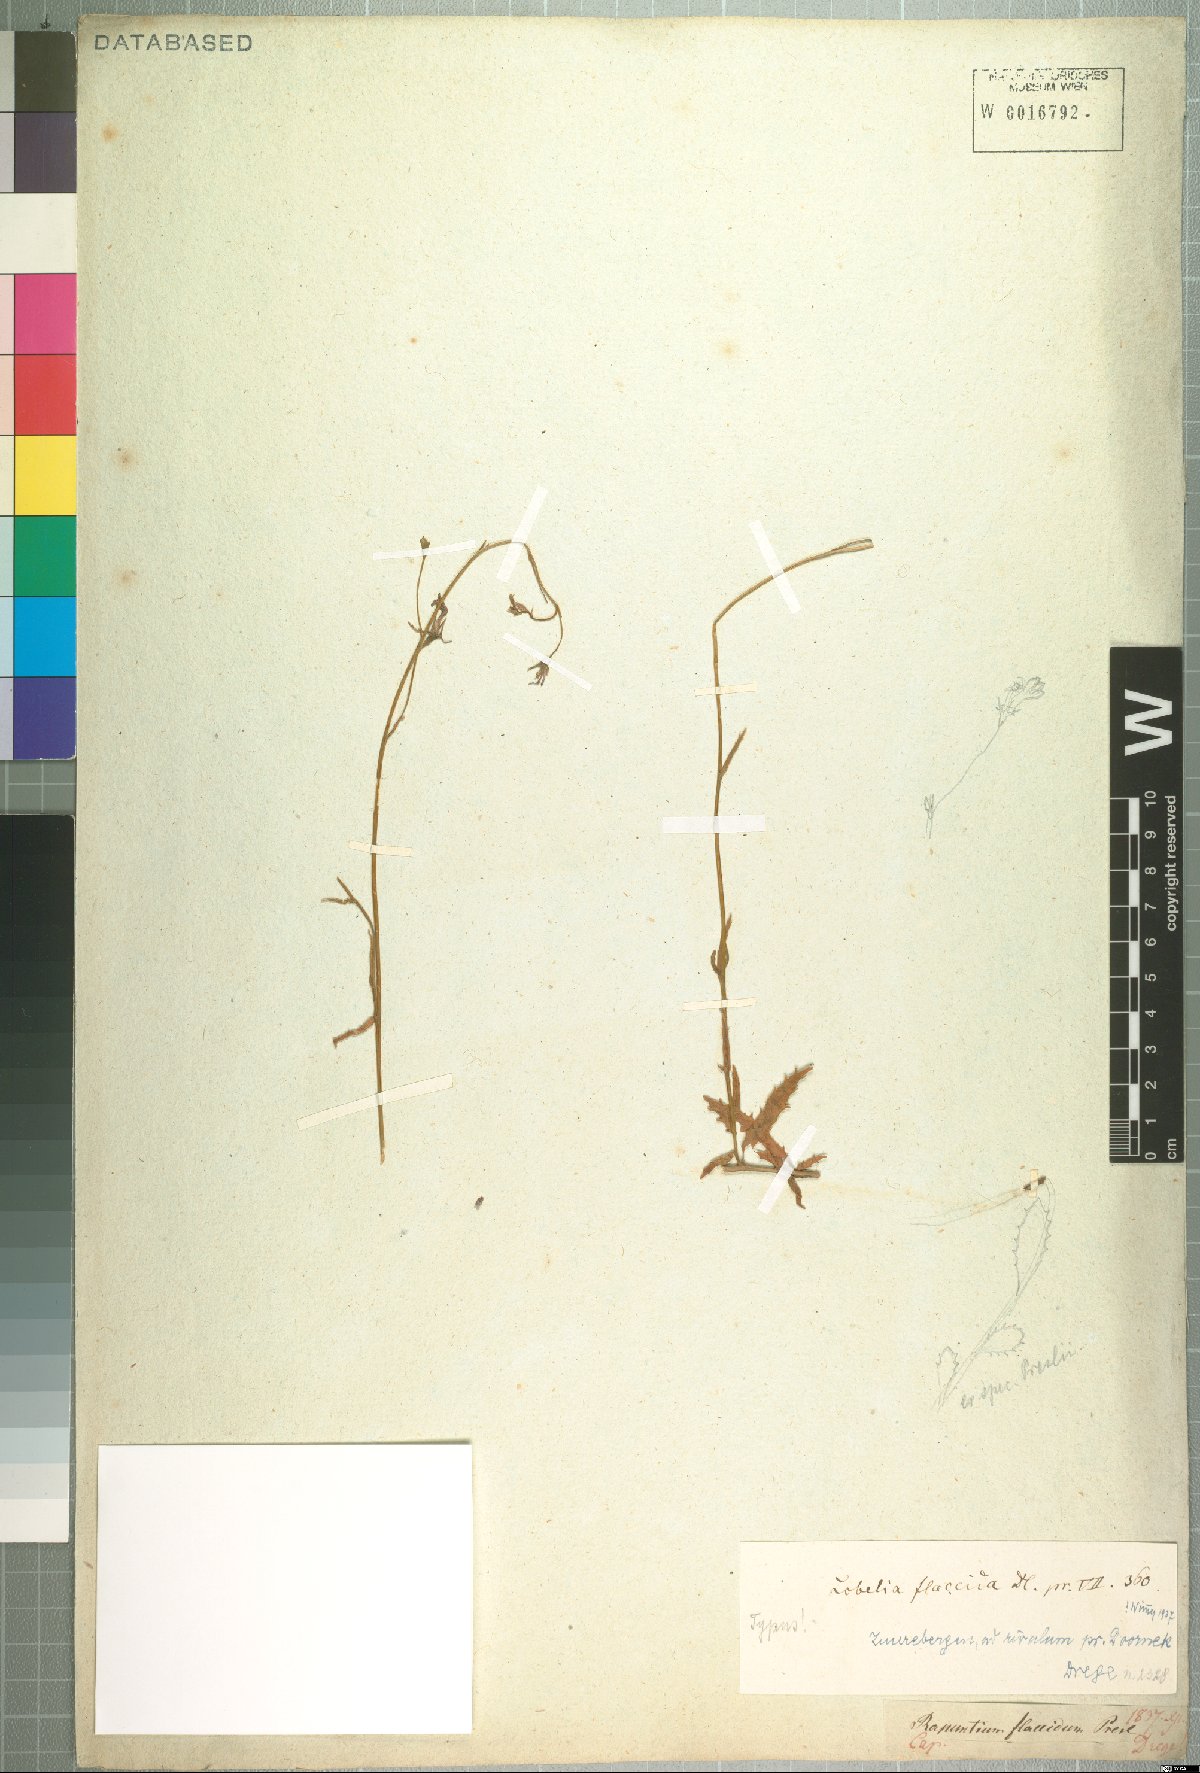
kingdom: Plantae
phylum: Tracheophyta
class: Magnoliopsida
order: Asterales
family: Campanulaceae
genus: Lobelia
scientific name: Lobelia flaccida
